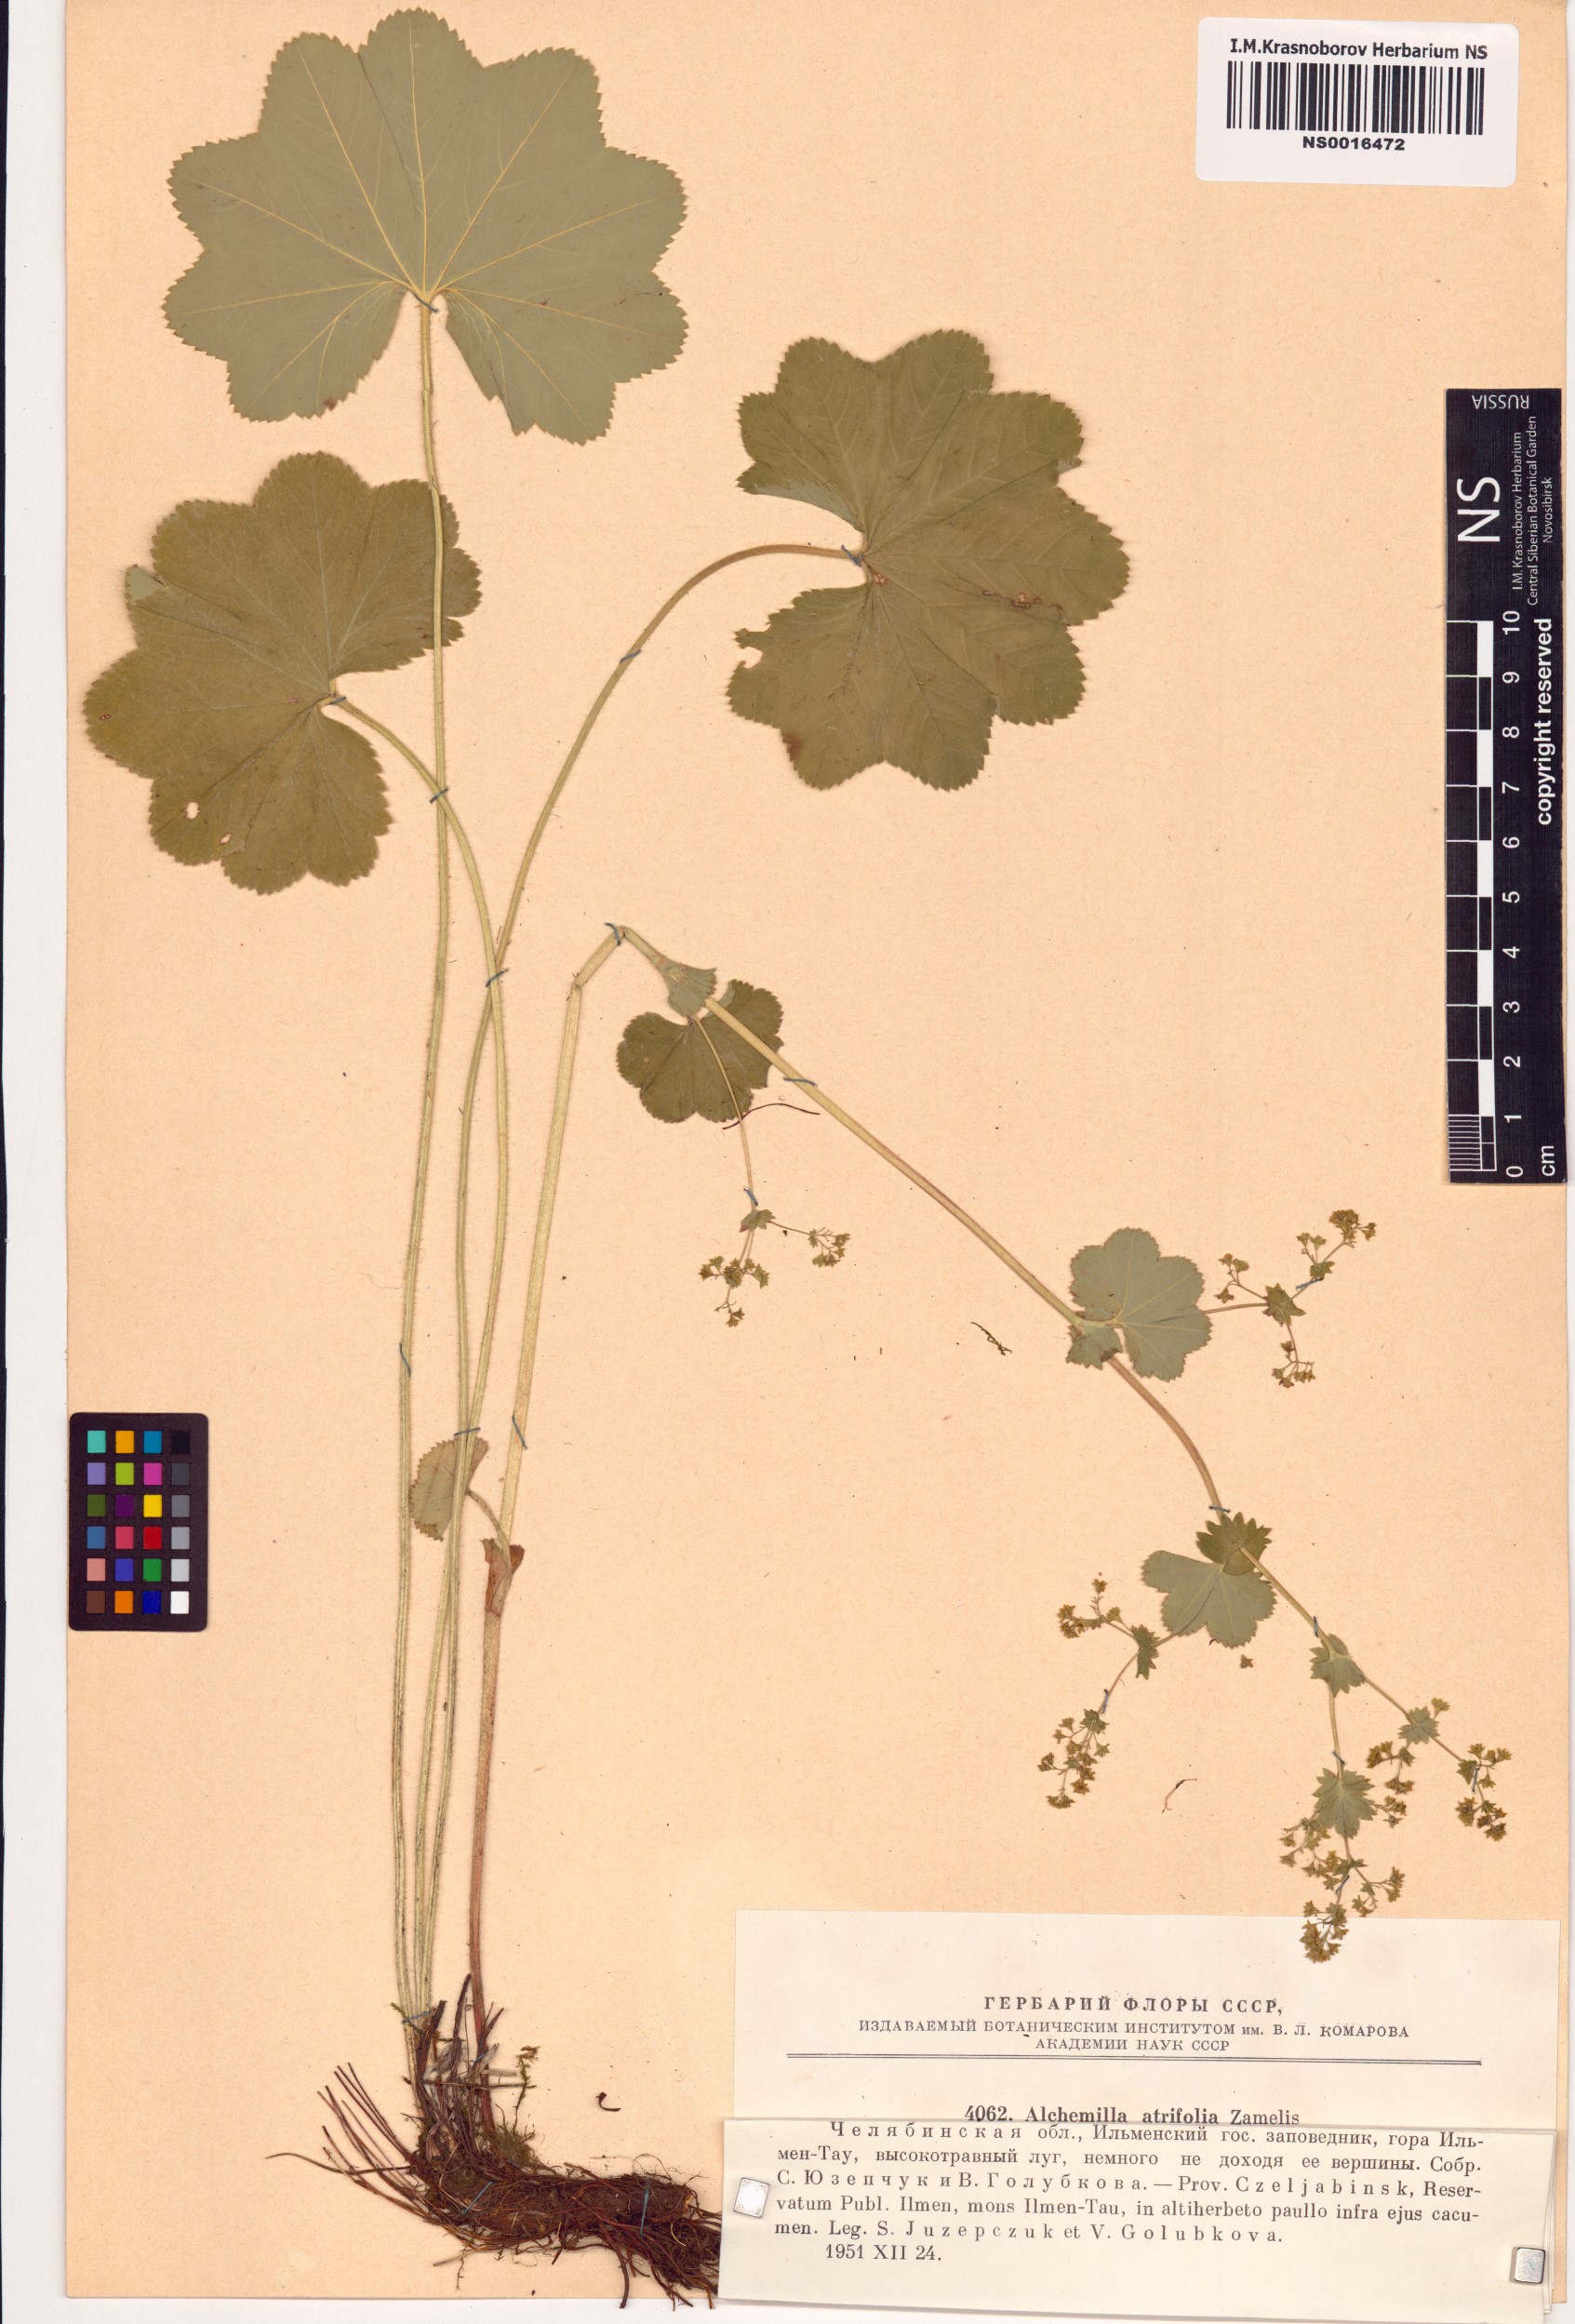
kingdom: Plantae
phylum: Tracheophyta
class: Magnoliopsida
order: Rosales
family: Rosaceae
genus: Alchemilla
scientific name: Alchemilla lindbergiana
